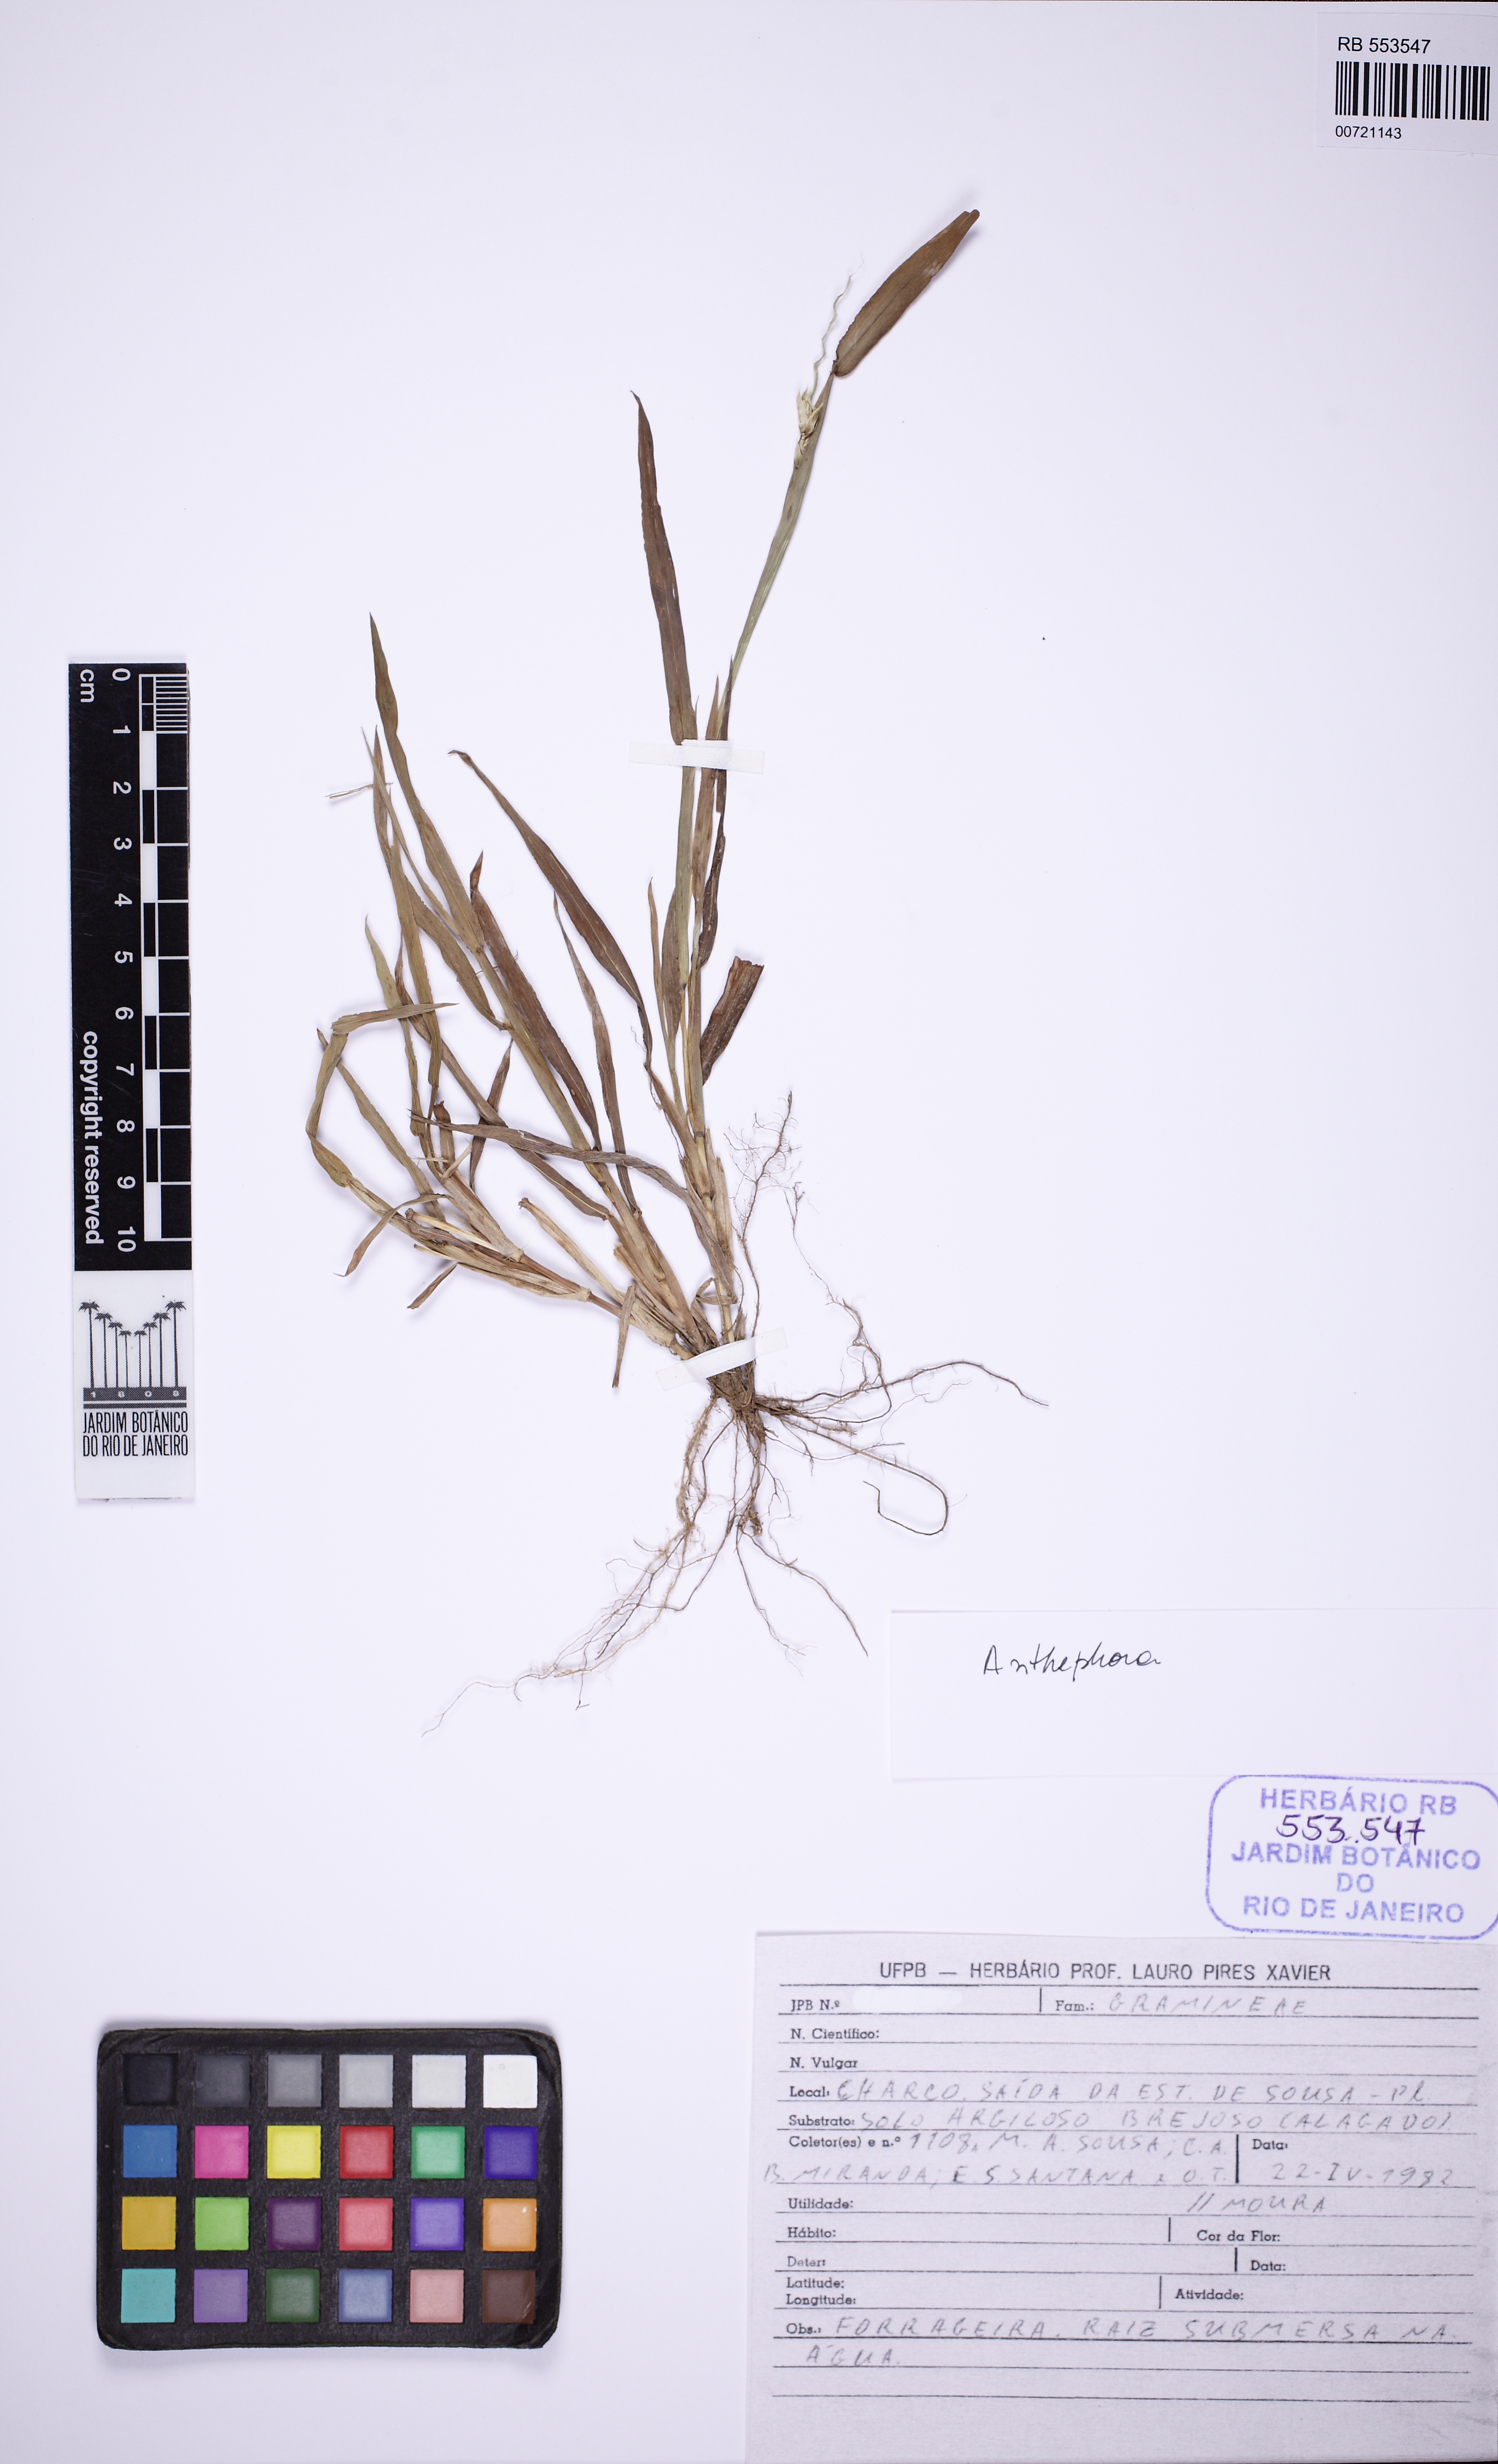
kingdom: Plantae
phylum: Tracheophyta
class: Liliopsida
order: Poales
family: Poaceae
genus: Anthephora
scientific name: Anthephora
